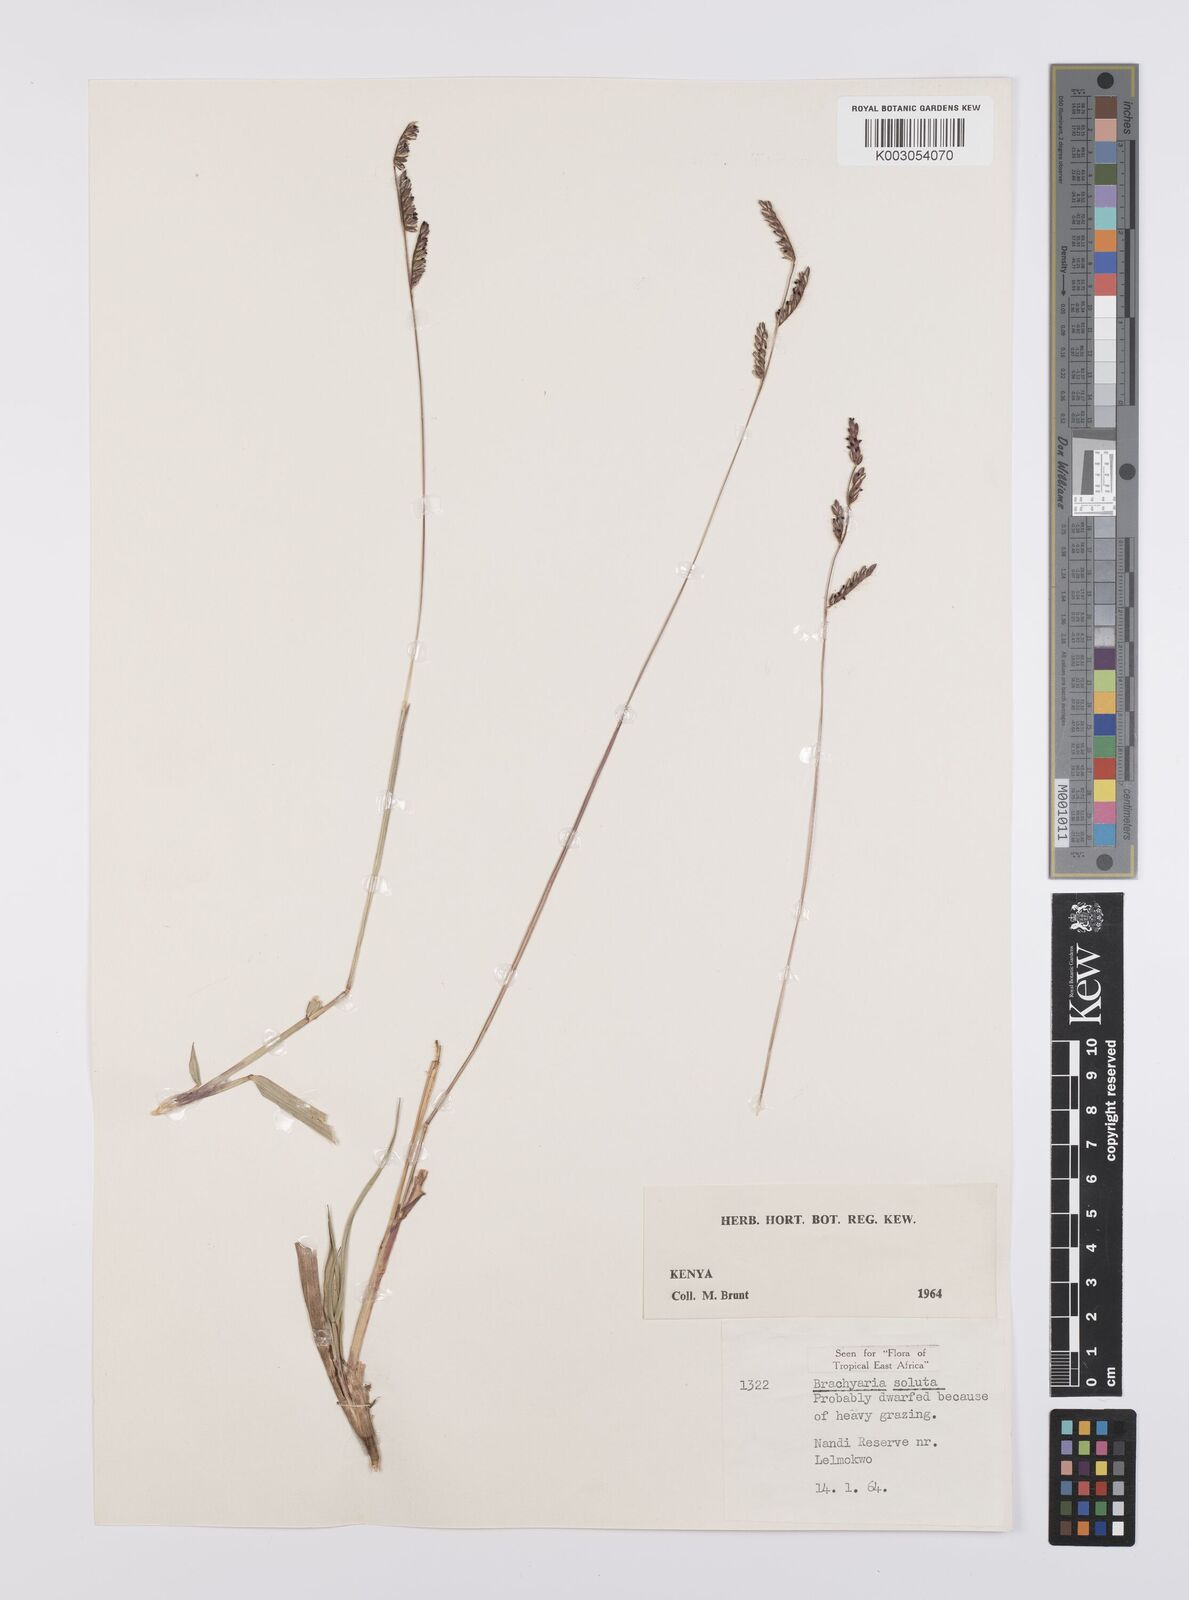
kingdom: Plantae
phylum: Tracheophyta
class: Liliopsida
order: Poales
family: Poaceae
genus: Urochloa
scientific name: Urochloa jubata
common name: Buffalograss
